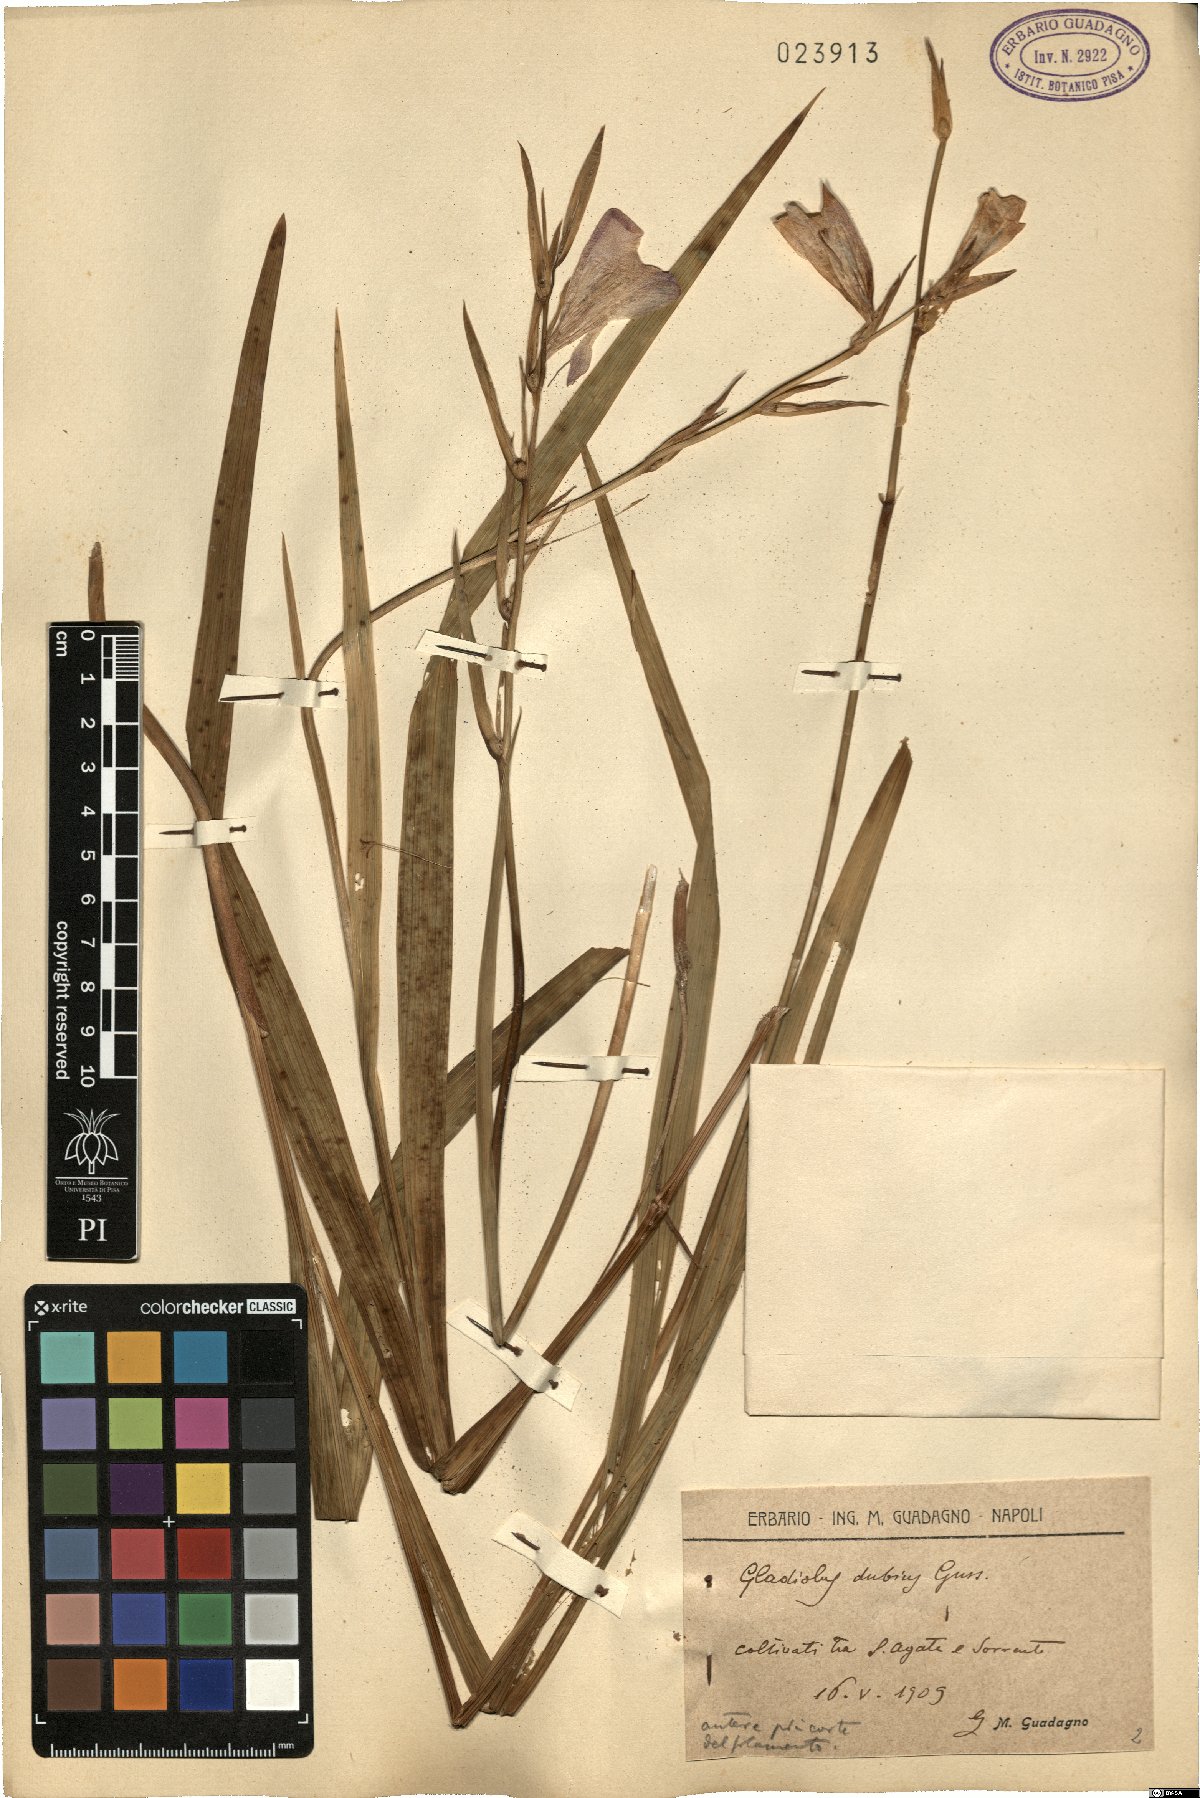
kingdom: Plantae
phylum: Tracheophyta
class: Liliopsida
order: Asparagales
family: Iridaceae
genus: Gladiolus
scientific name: Gladiolus dubius
